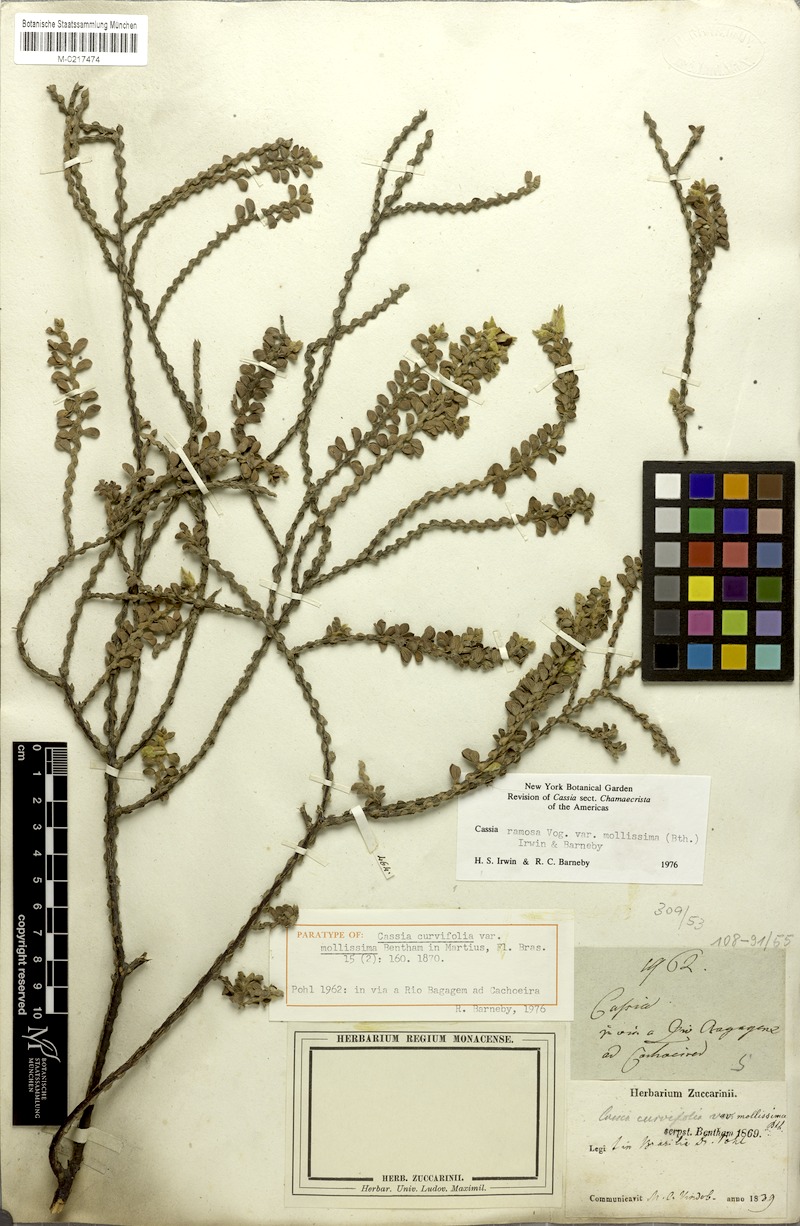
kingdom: Plantae
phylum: Tracheophyta
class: Magnoliopsida
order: Fabales
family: Fabaceae
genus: Chamaecrista
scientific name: Chamaecrista ramosa
